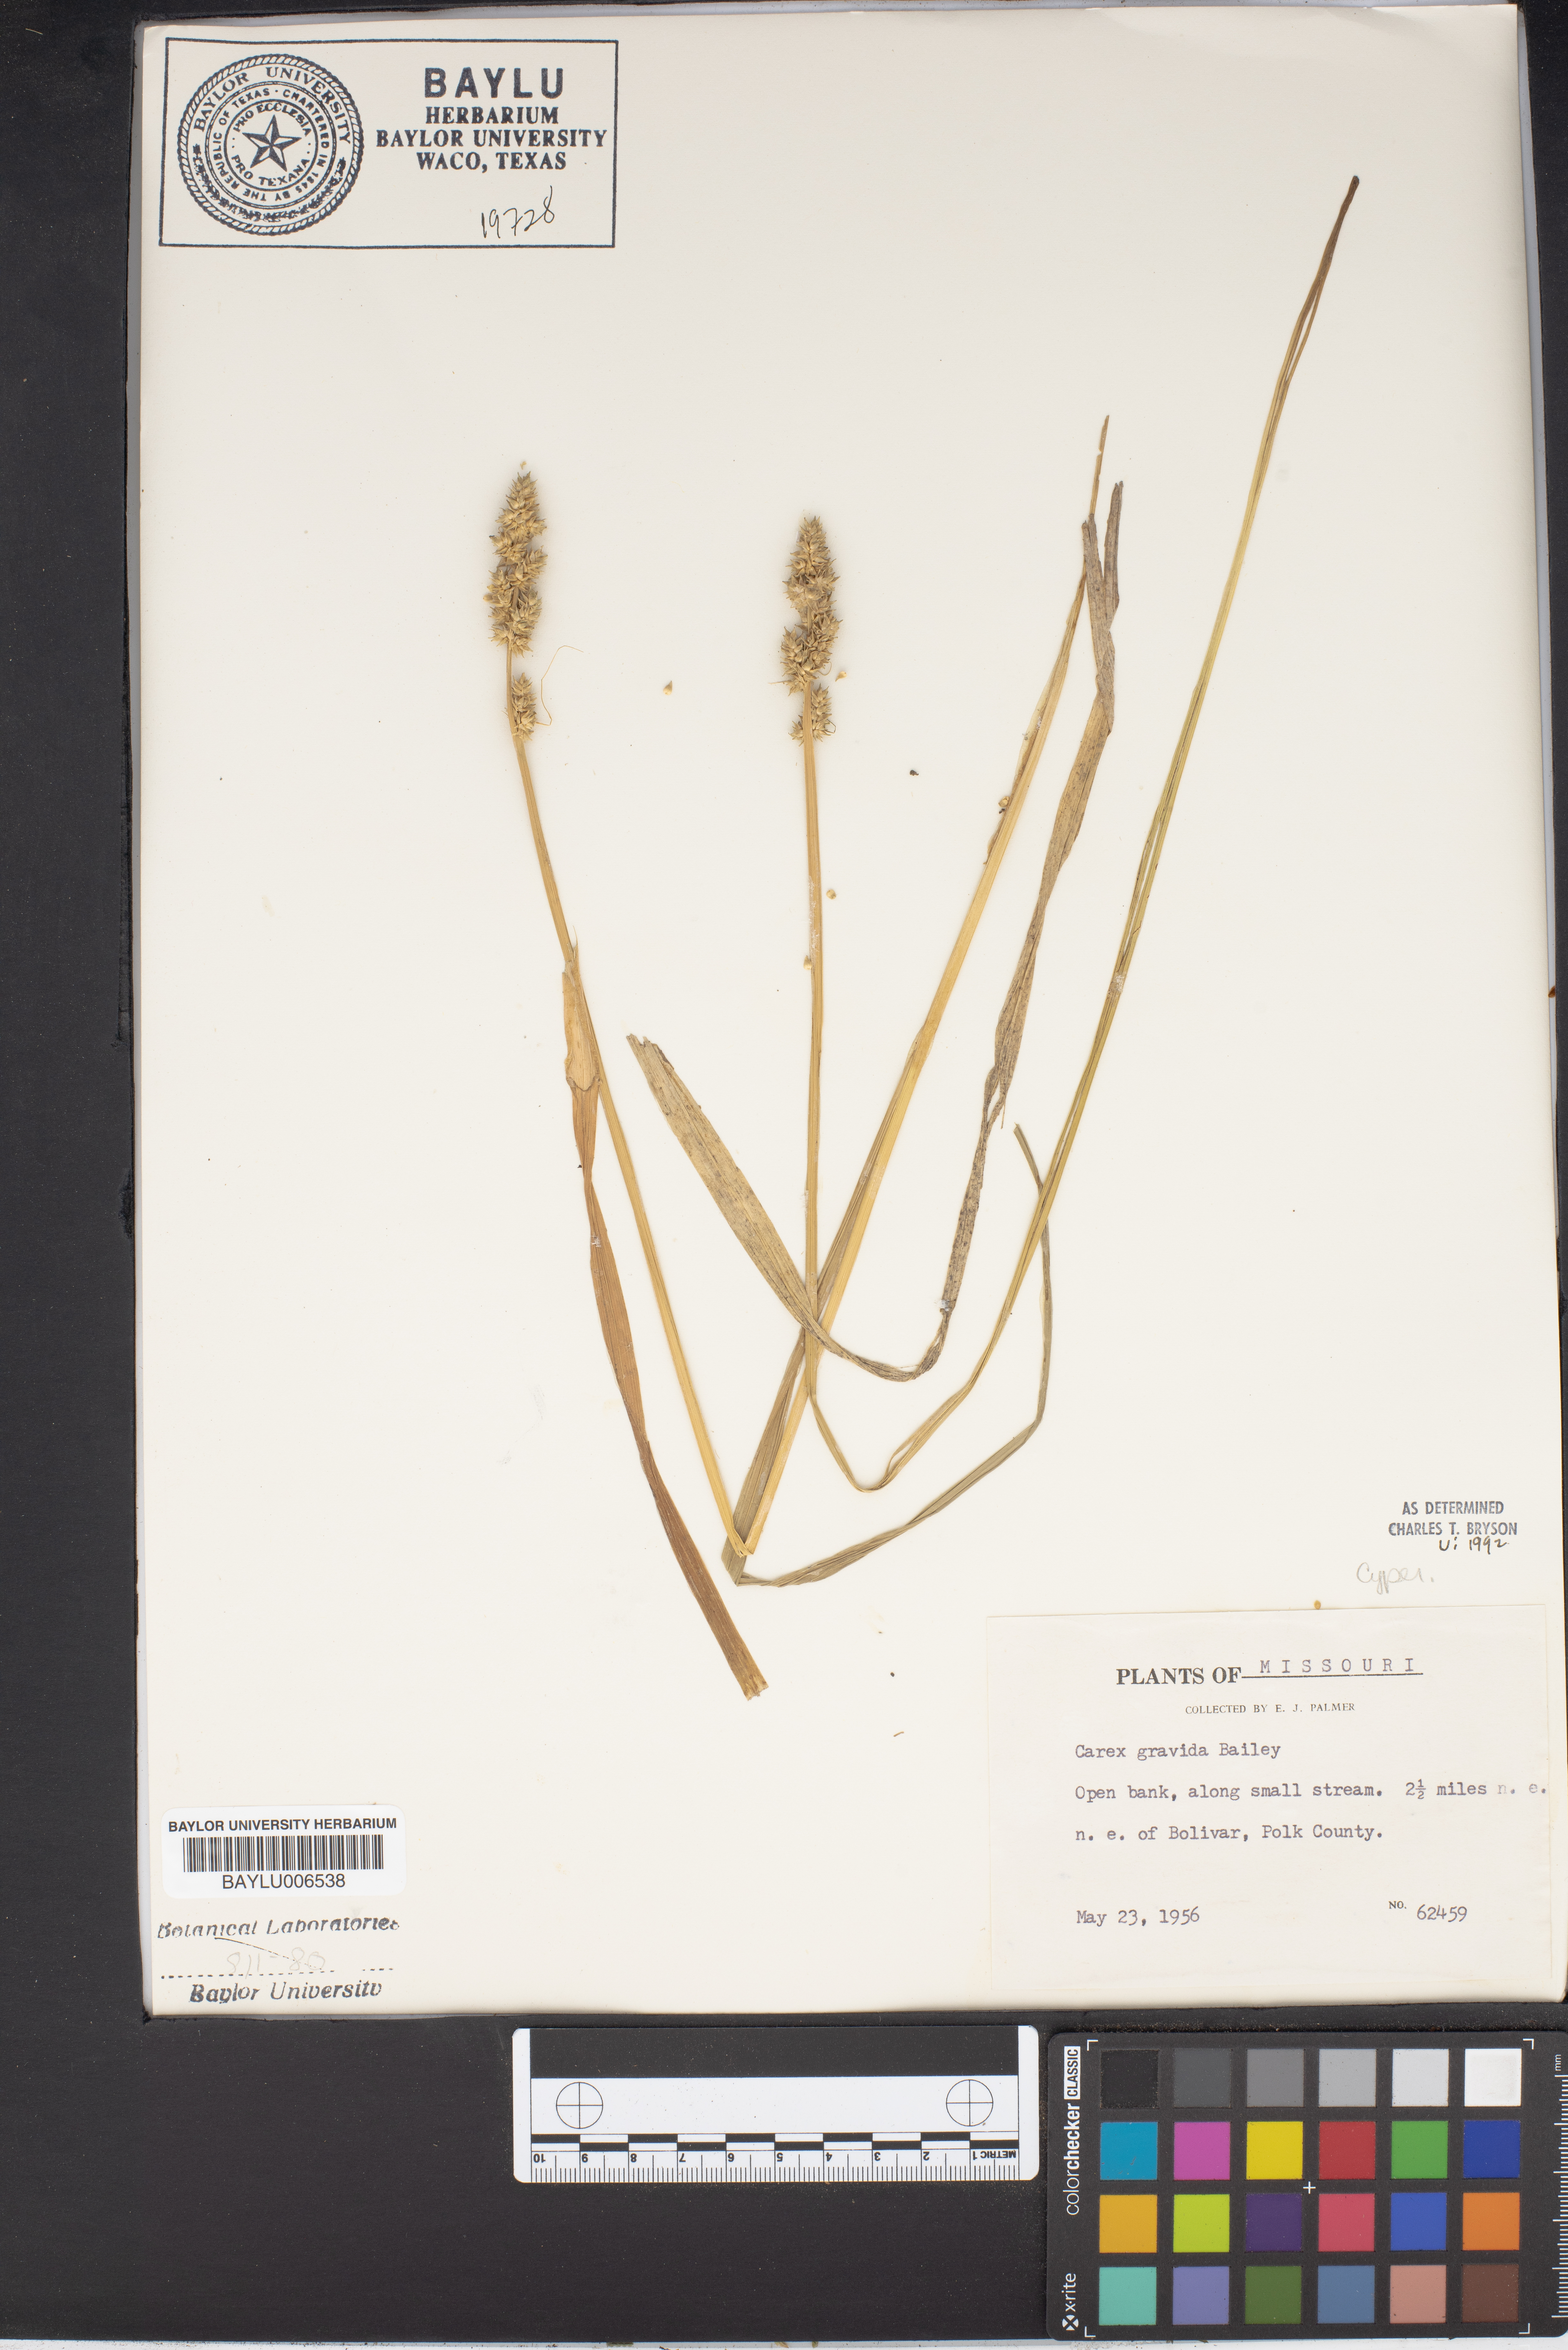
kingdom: Plantae
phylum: Tracheophyta
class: Liliopsida
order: Poales
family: Cyperaceae
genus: Carex
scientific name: Carex gravida
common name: Heavy sedge
